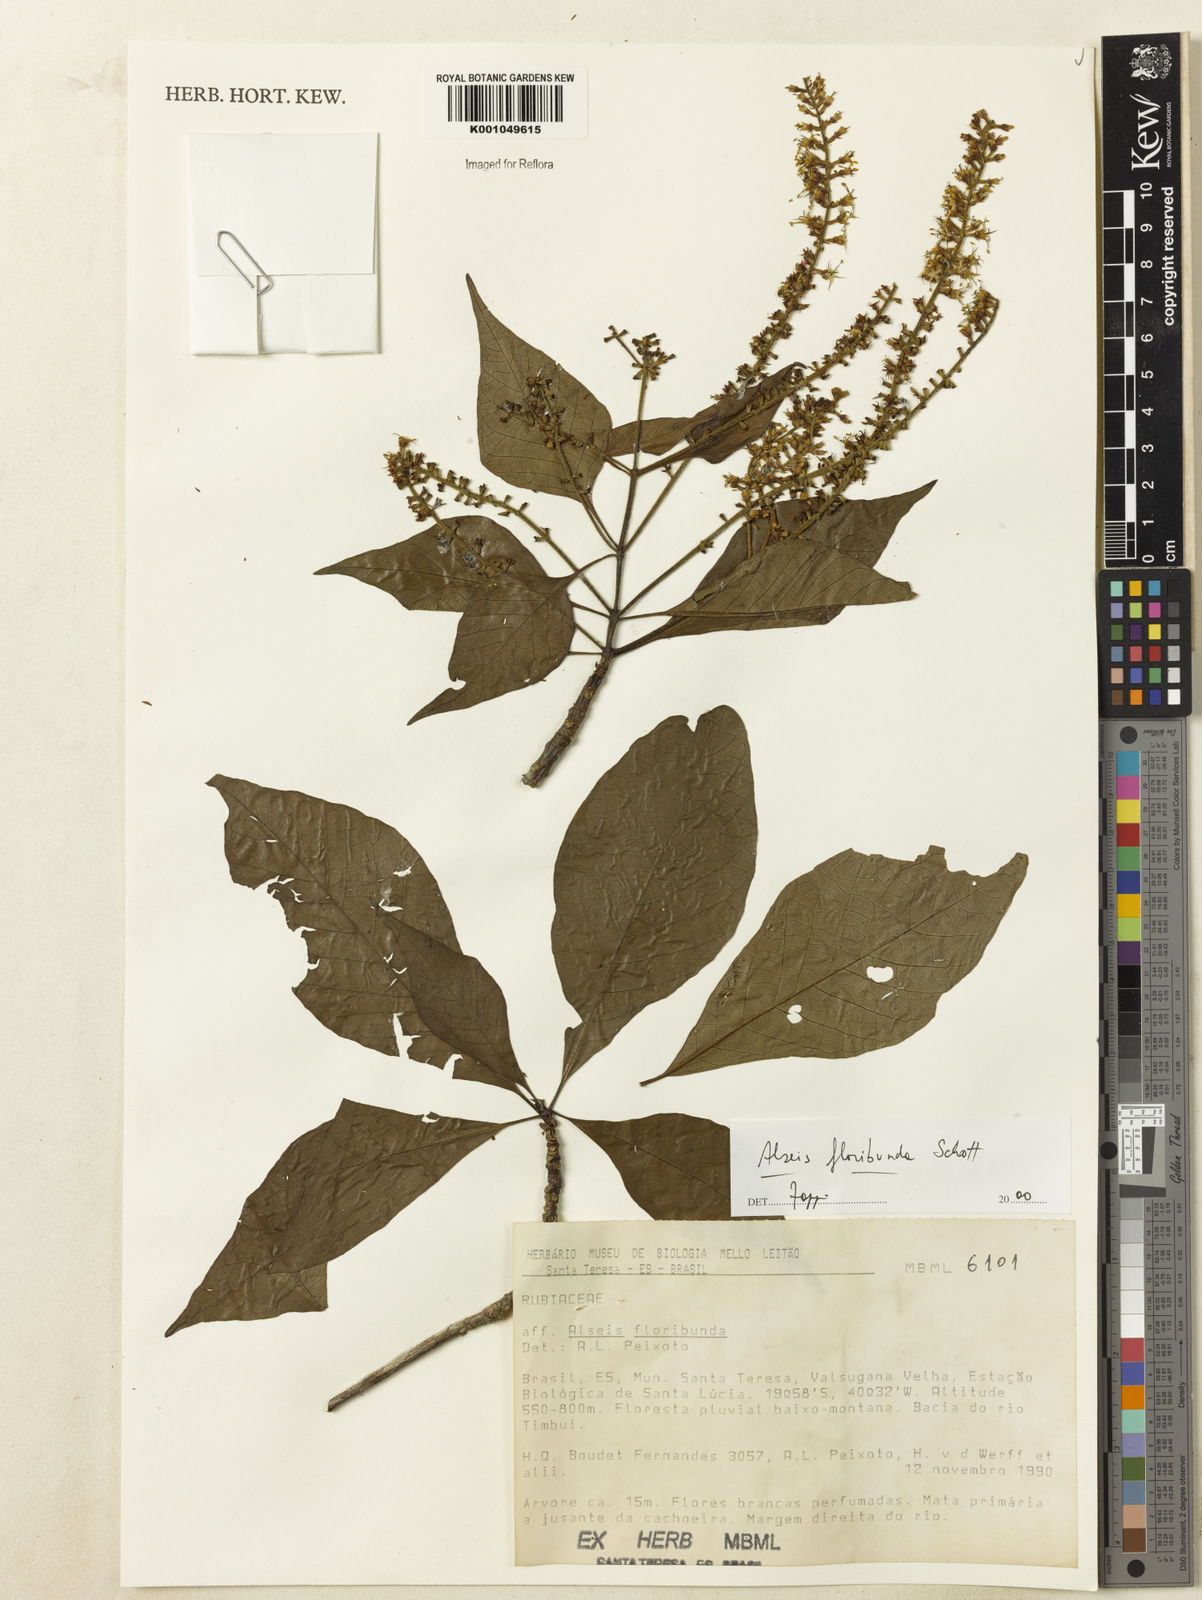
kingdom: Plantae
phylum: Tracheophyta
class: Magnoliopsida
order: Gentianales
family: Rubiaceae
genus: Alseis
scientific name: Alseis floribunda
